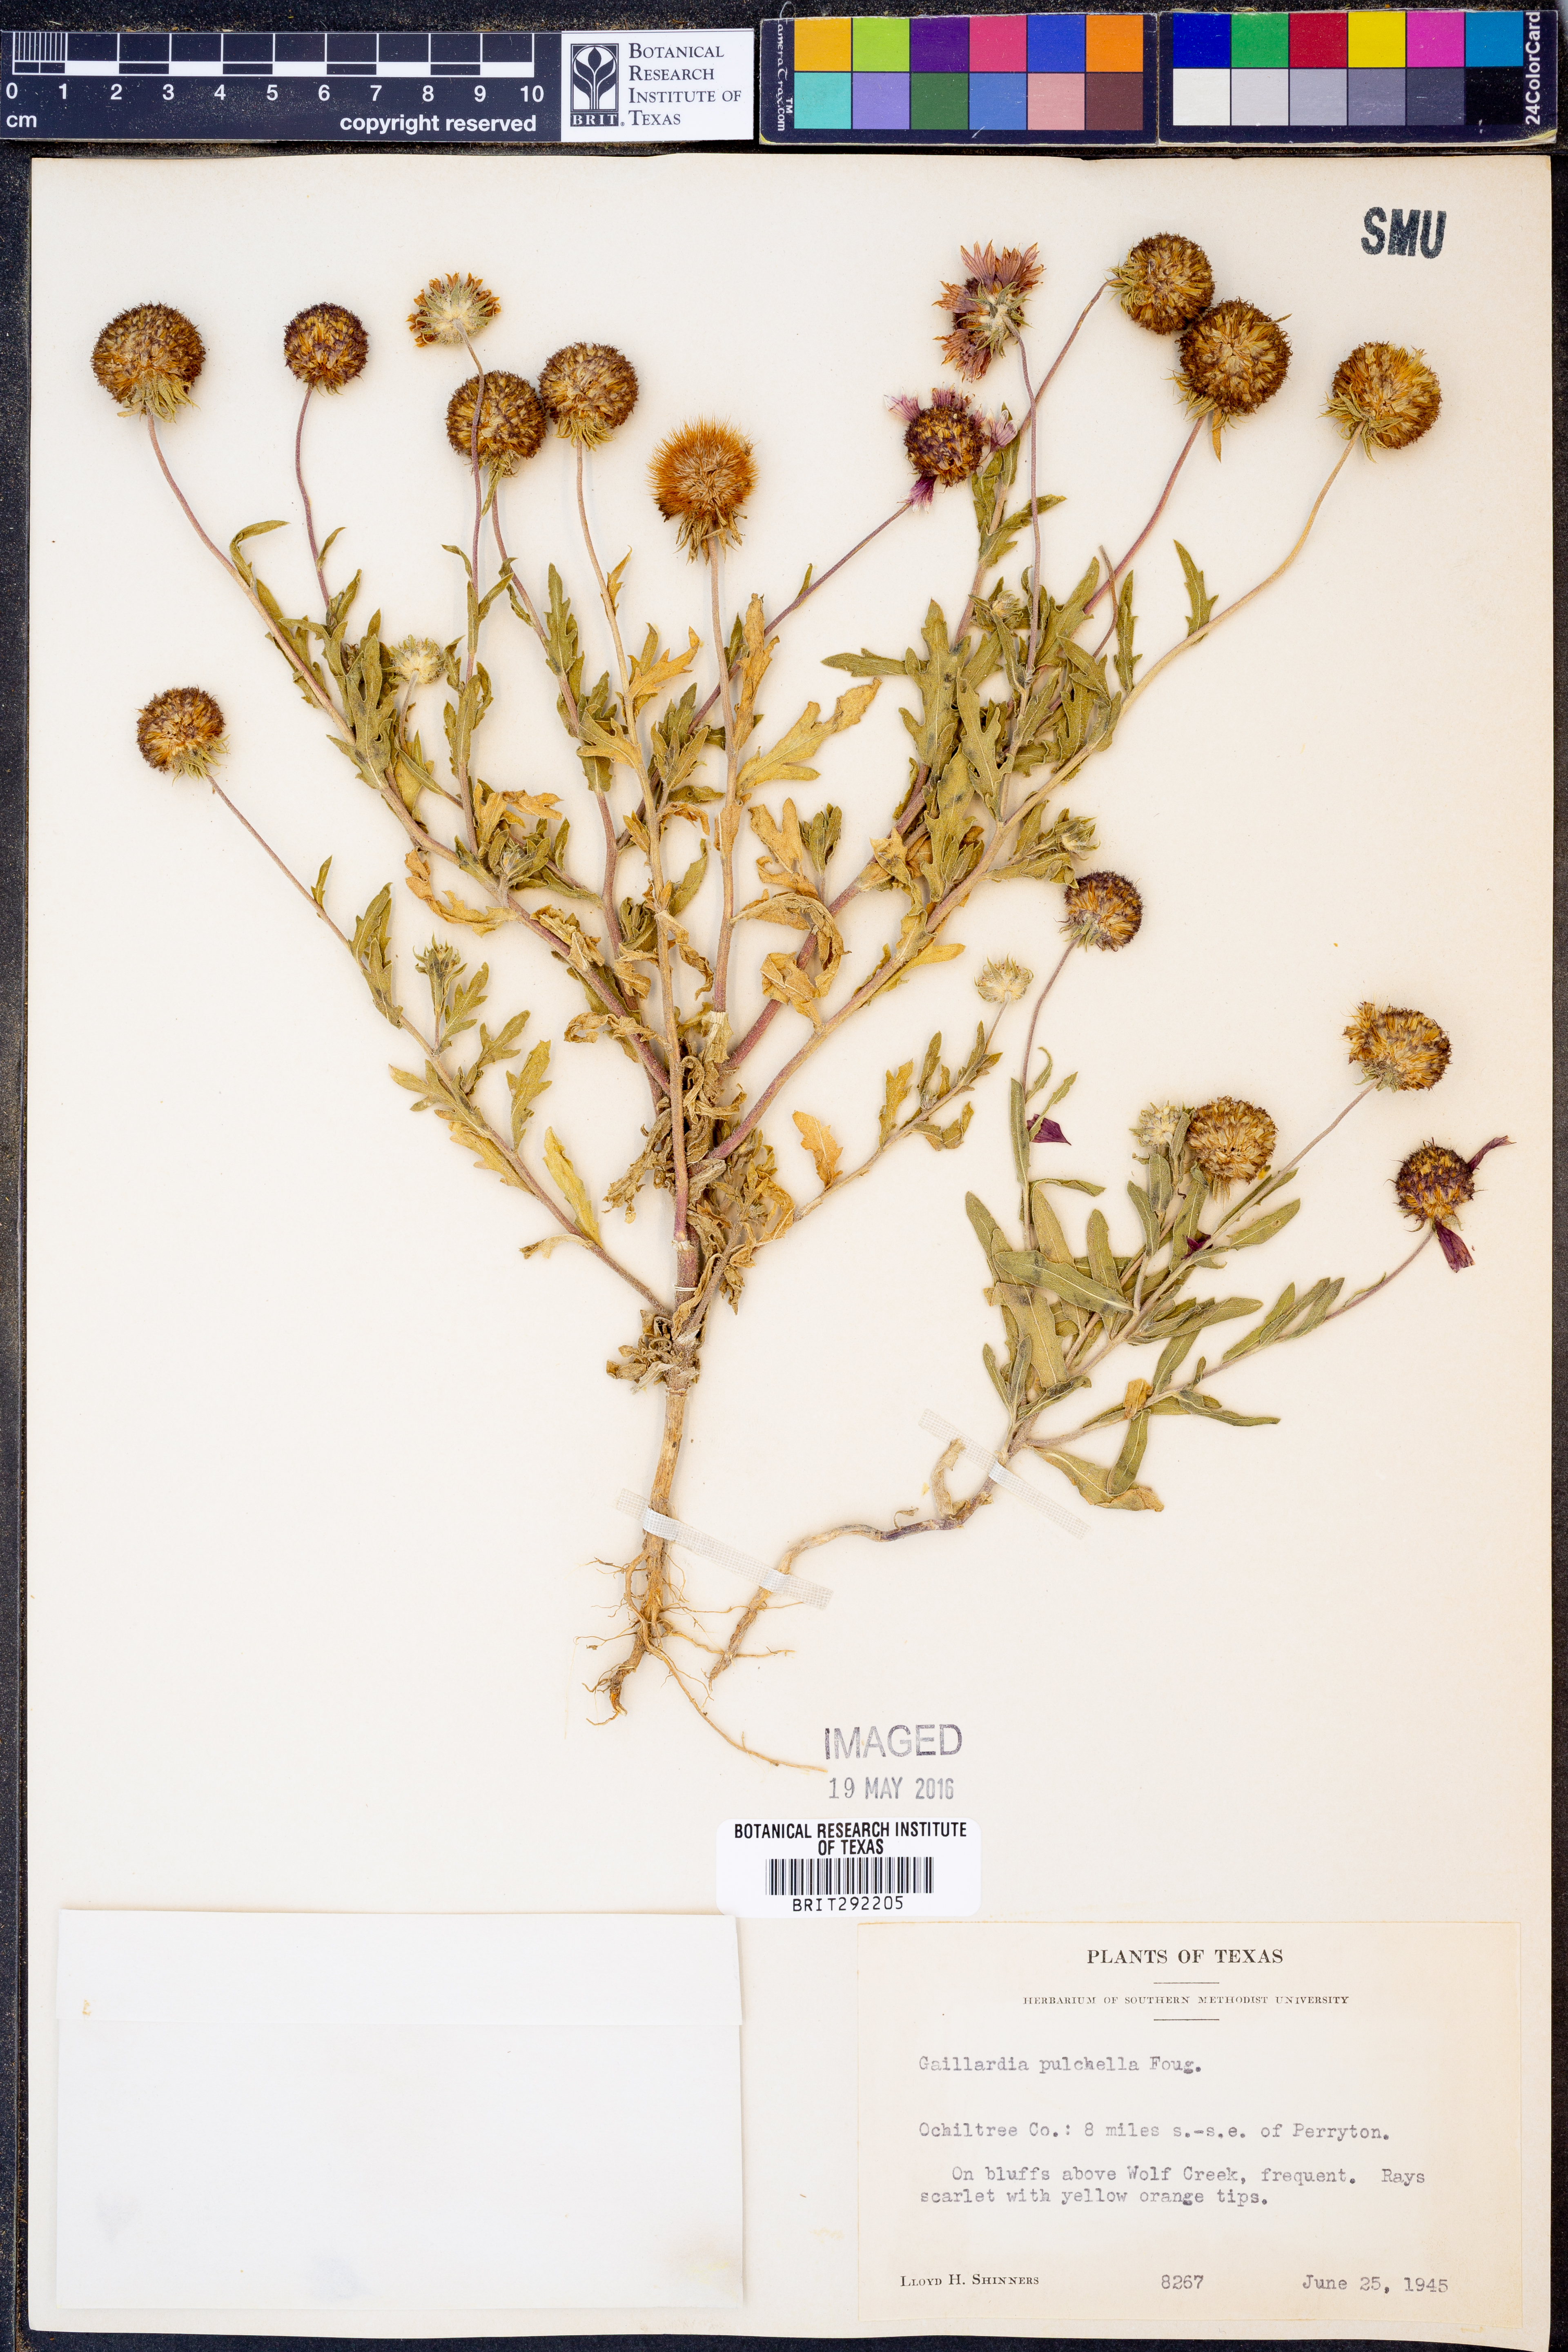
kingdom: Plantae
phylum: Tracheophyta
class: Magnoliopsida
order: Asterales
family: Asteraceae
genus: Gaillardia
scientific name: Gaillardia pulchella
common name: Firewheel
